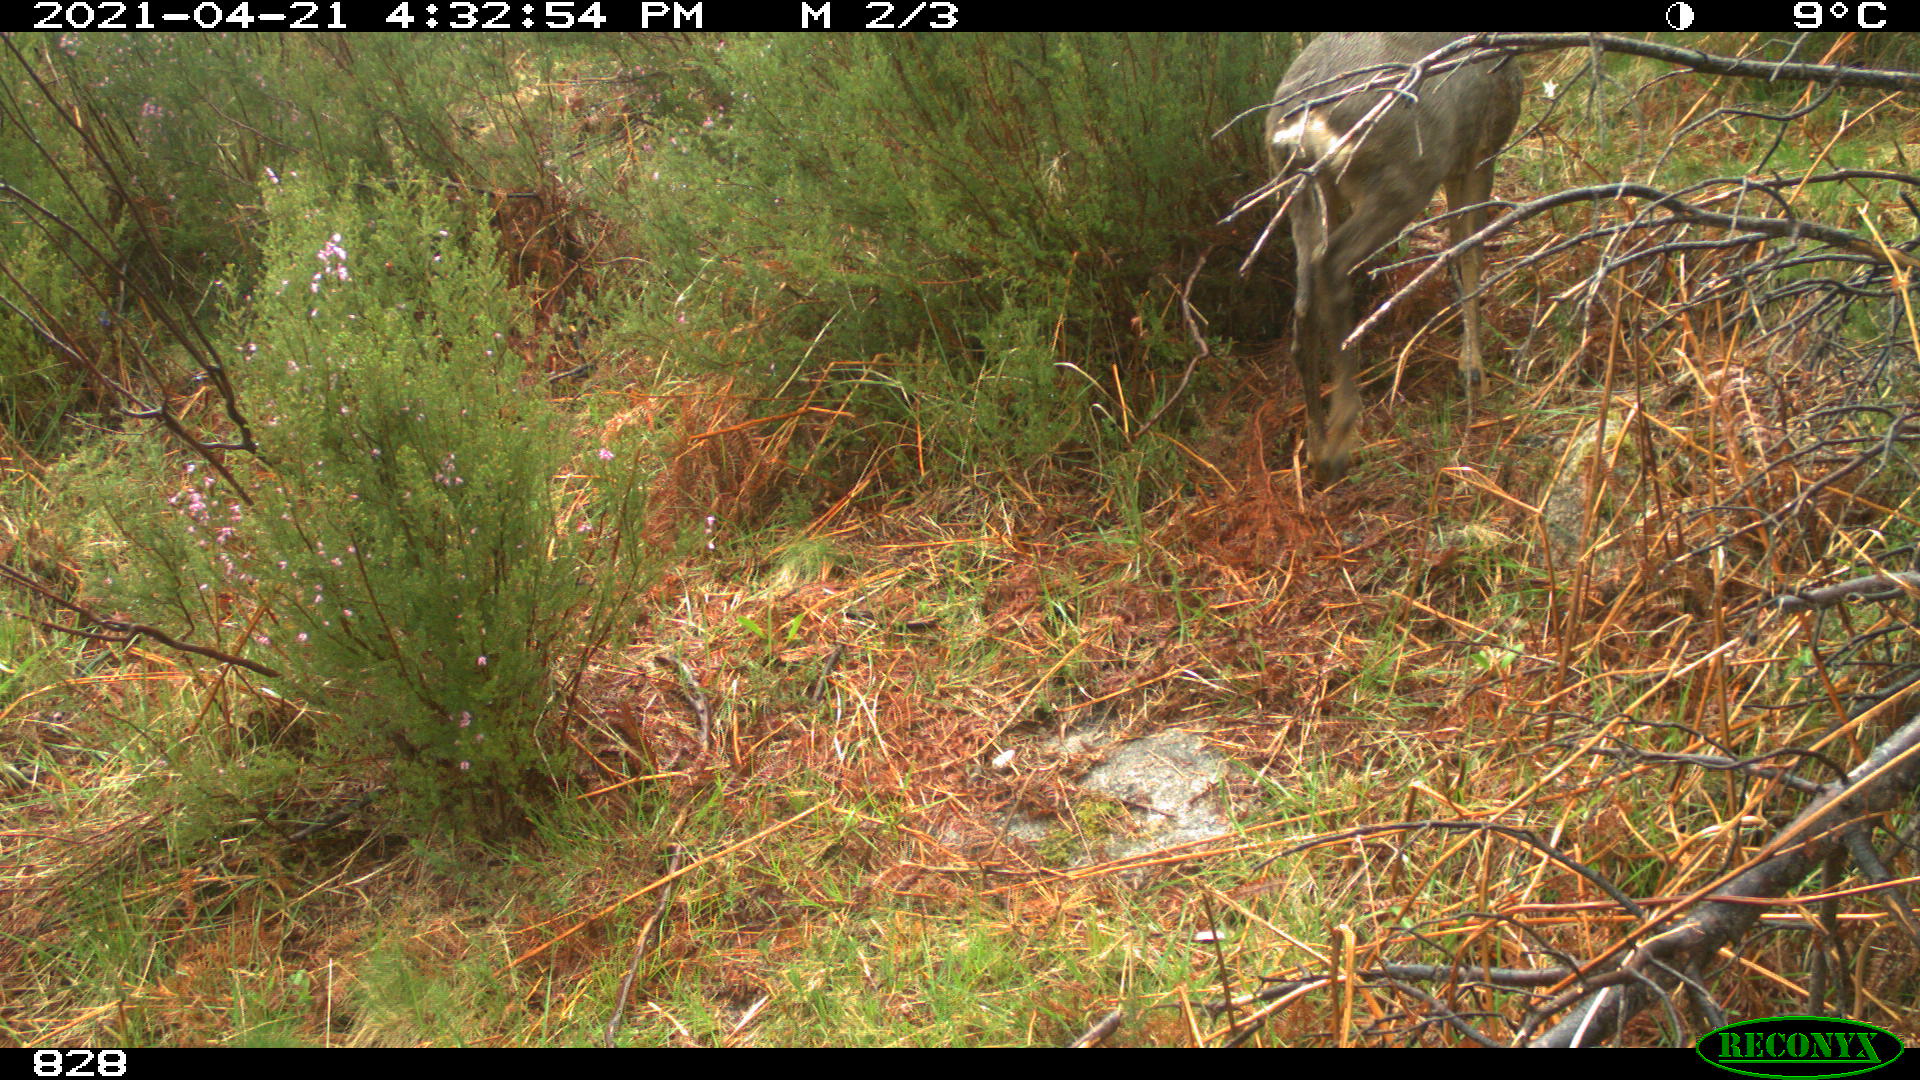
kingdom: Animalia
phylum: Chordata
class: Mammalia
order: Artiodactyla
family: Cervidae
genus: Capreolus
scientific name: Capreolus capreolus
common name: Western roe deer
